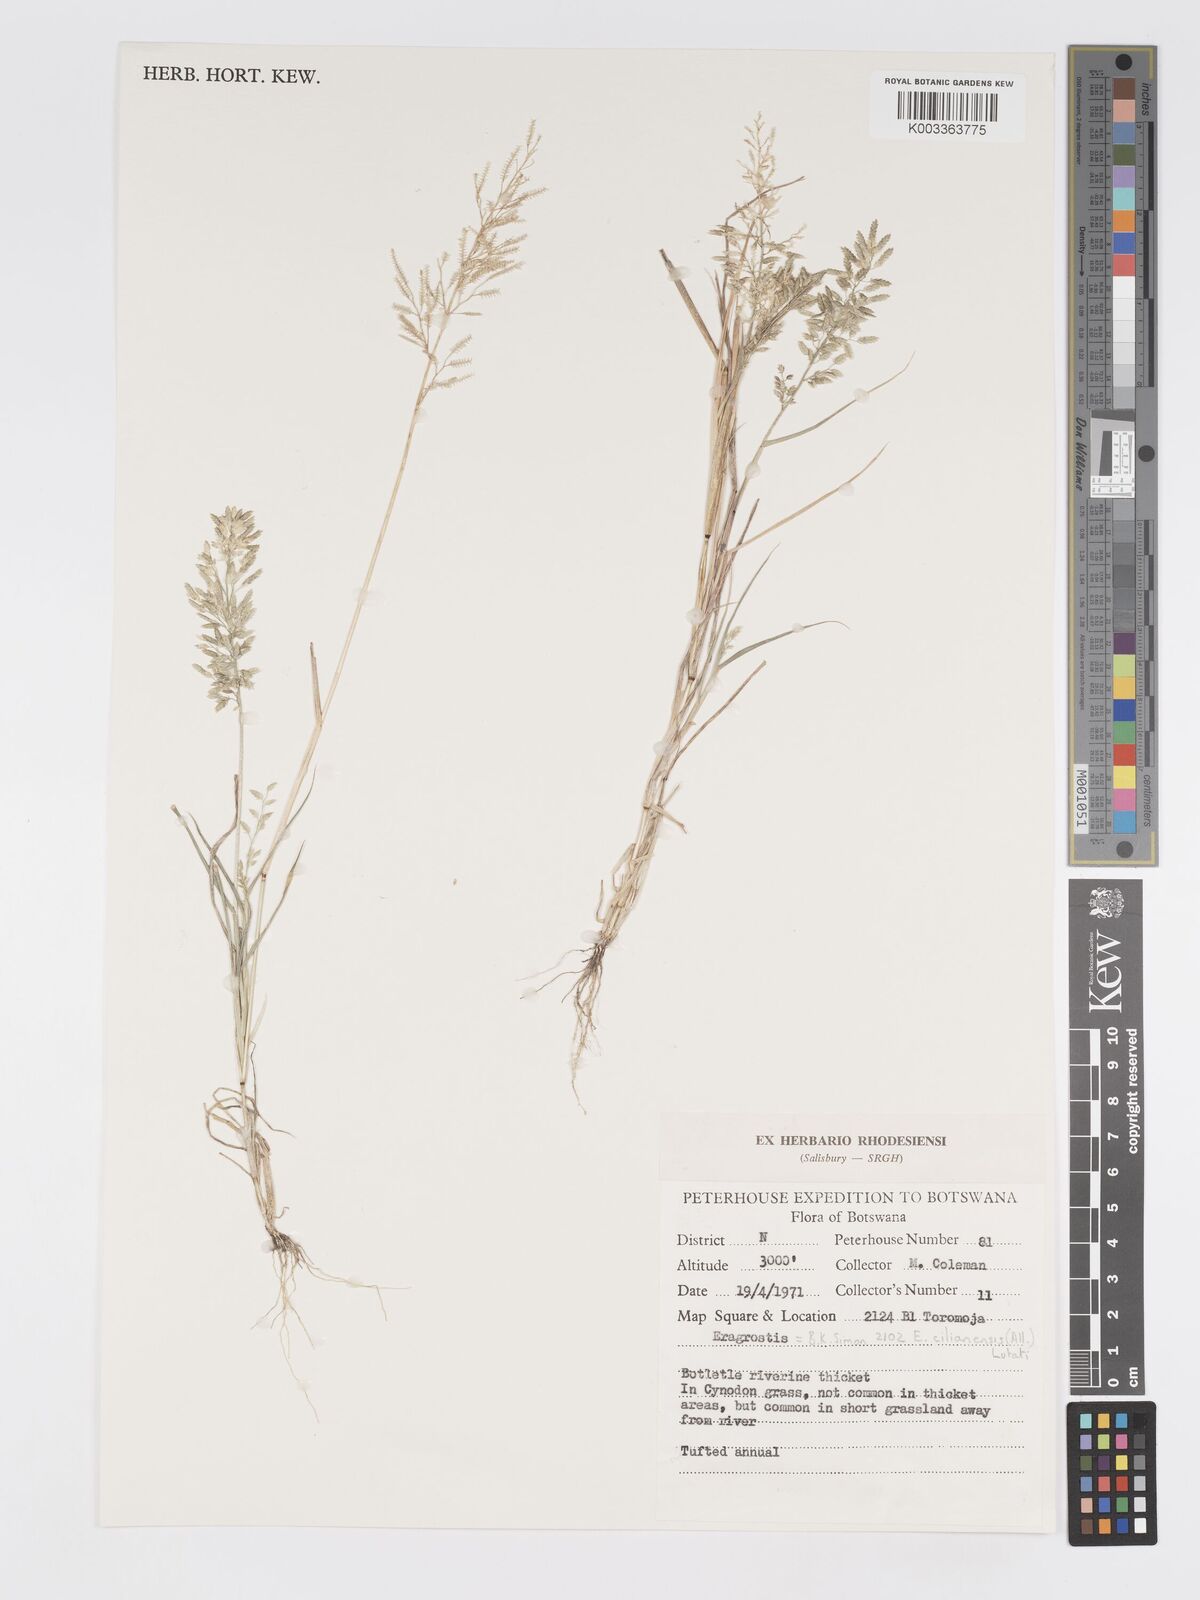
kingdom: Plantae
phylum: Tracheophyta
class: Liliopsida
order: Poales
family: Poaceae
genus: Eragrostis
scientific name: Eragrostis cilianensis
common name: Stinkgrass
